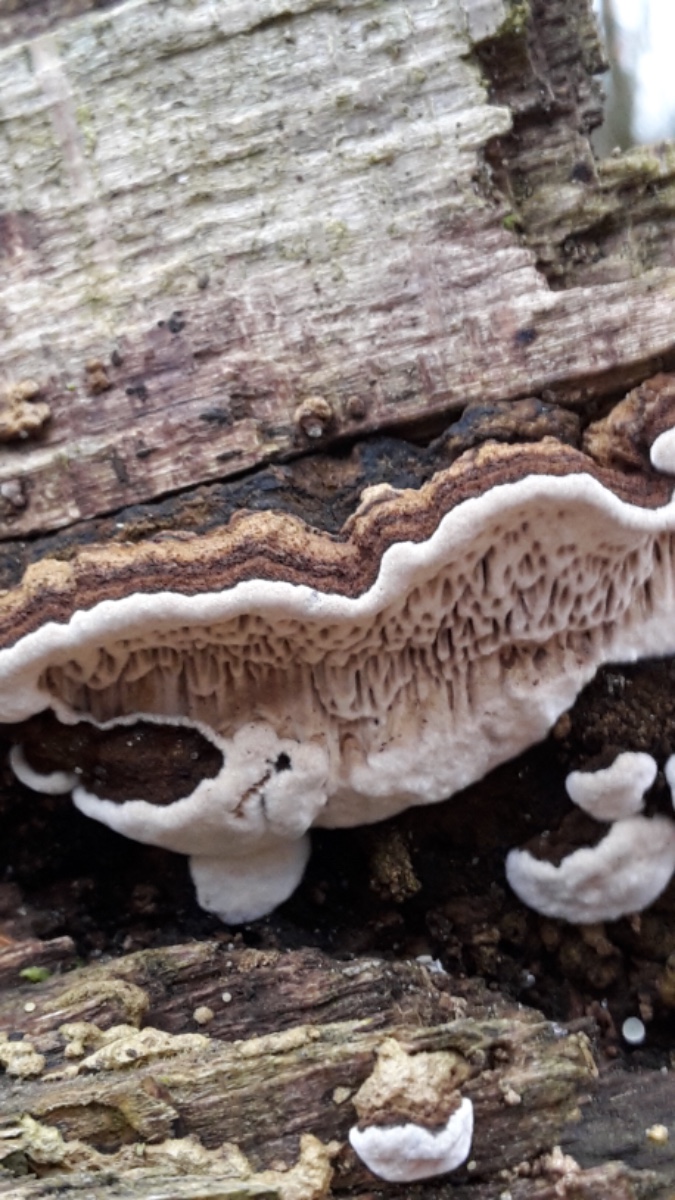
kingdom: Fungi
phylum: Basidiomycota
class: Agaricomycetes
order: Polyporales
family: Polyporaceae
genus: Podofomes
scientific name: Podofomes mollis
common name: blød begporesvamp
